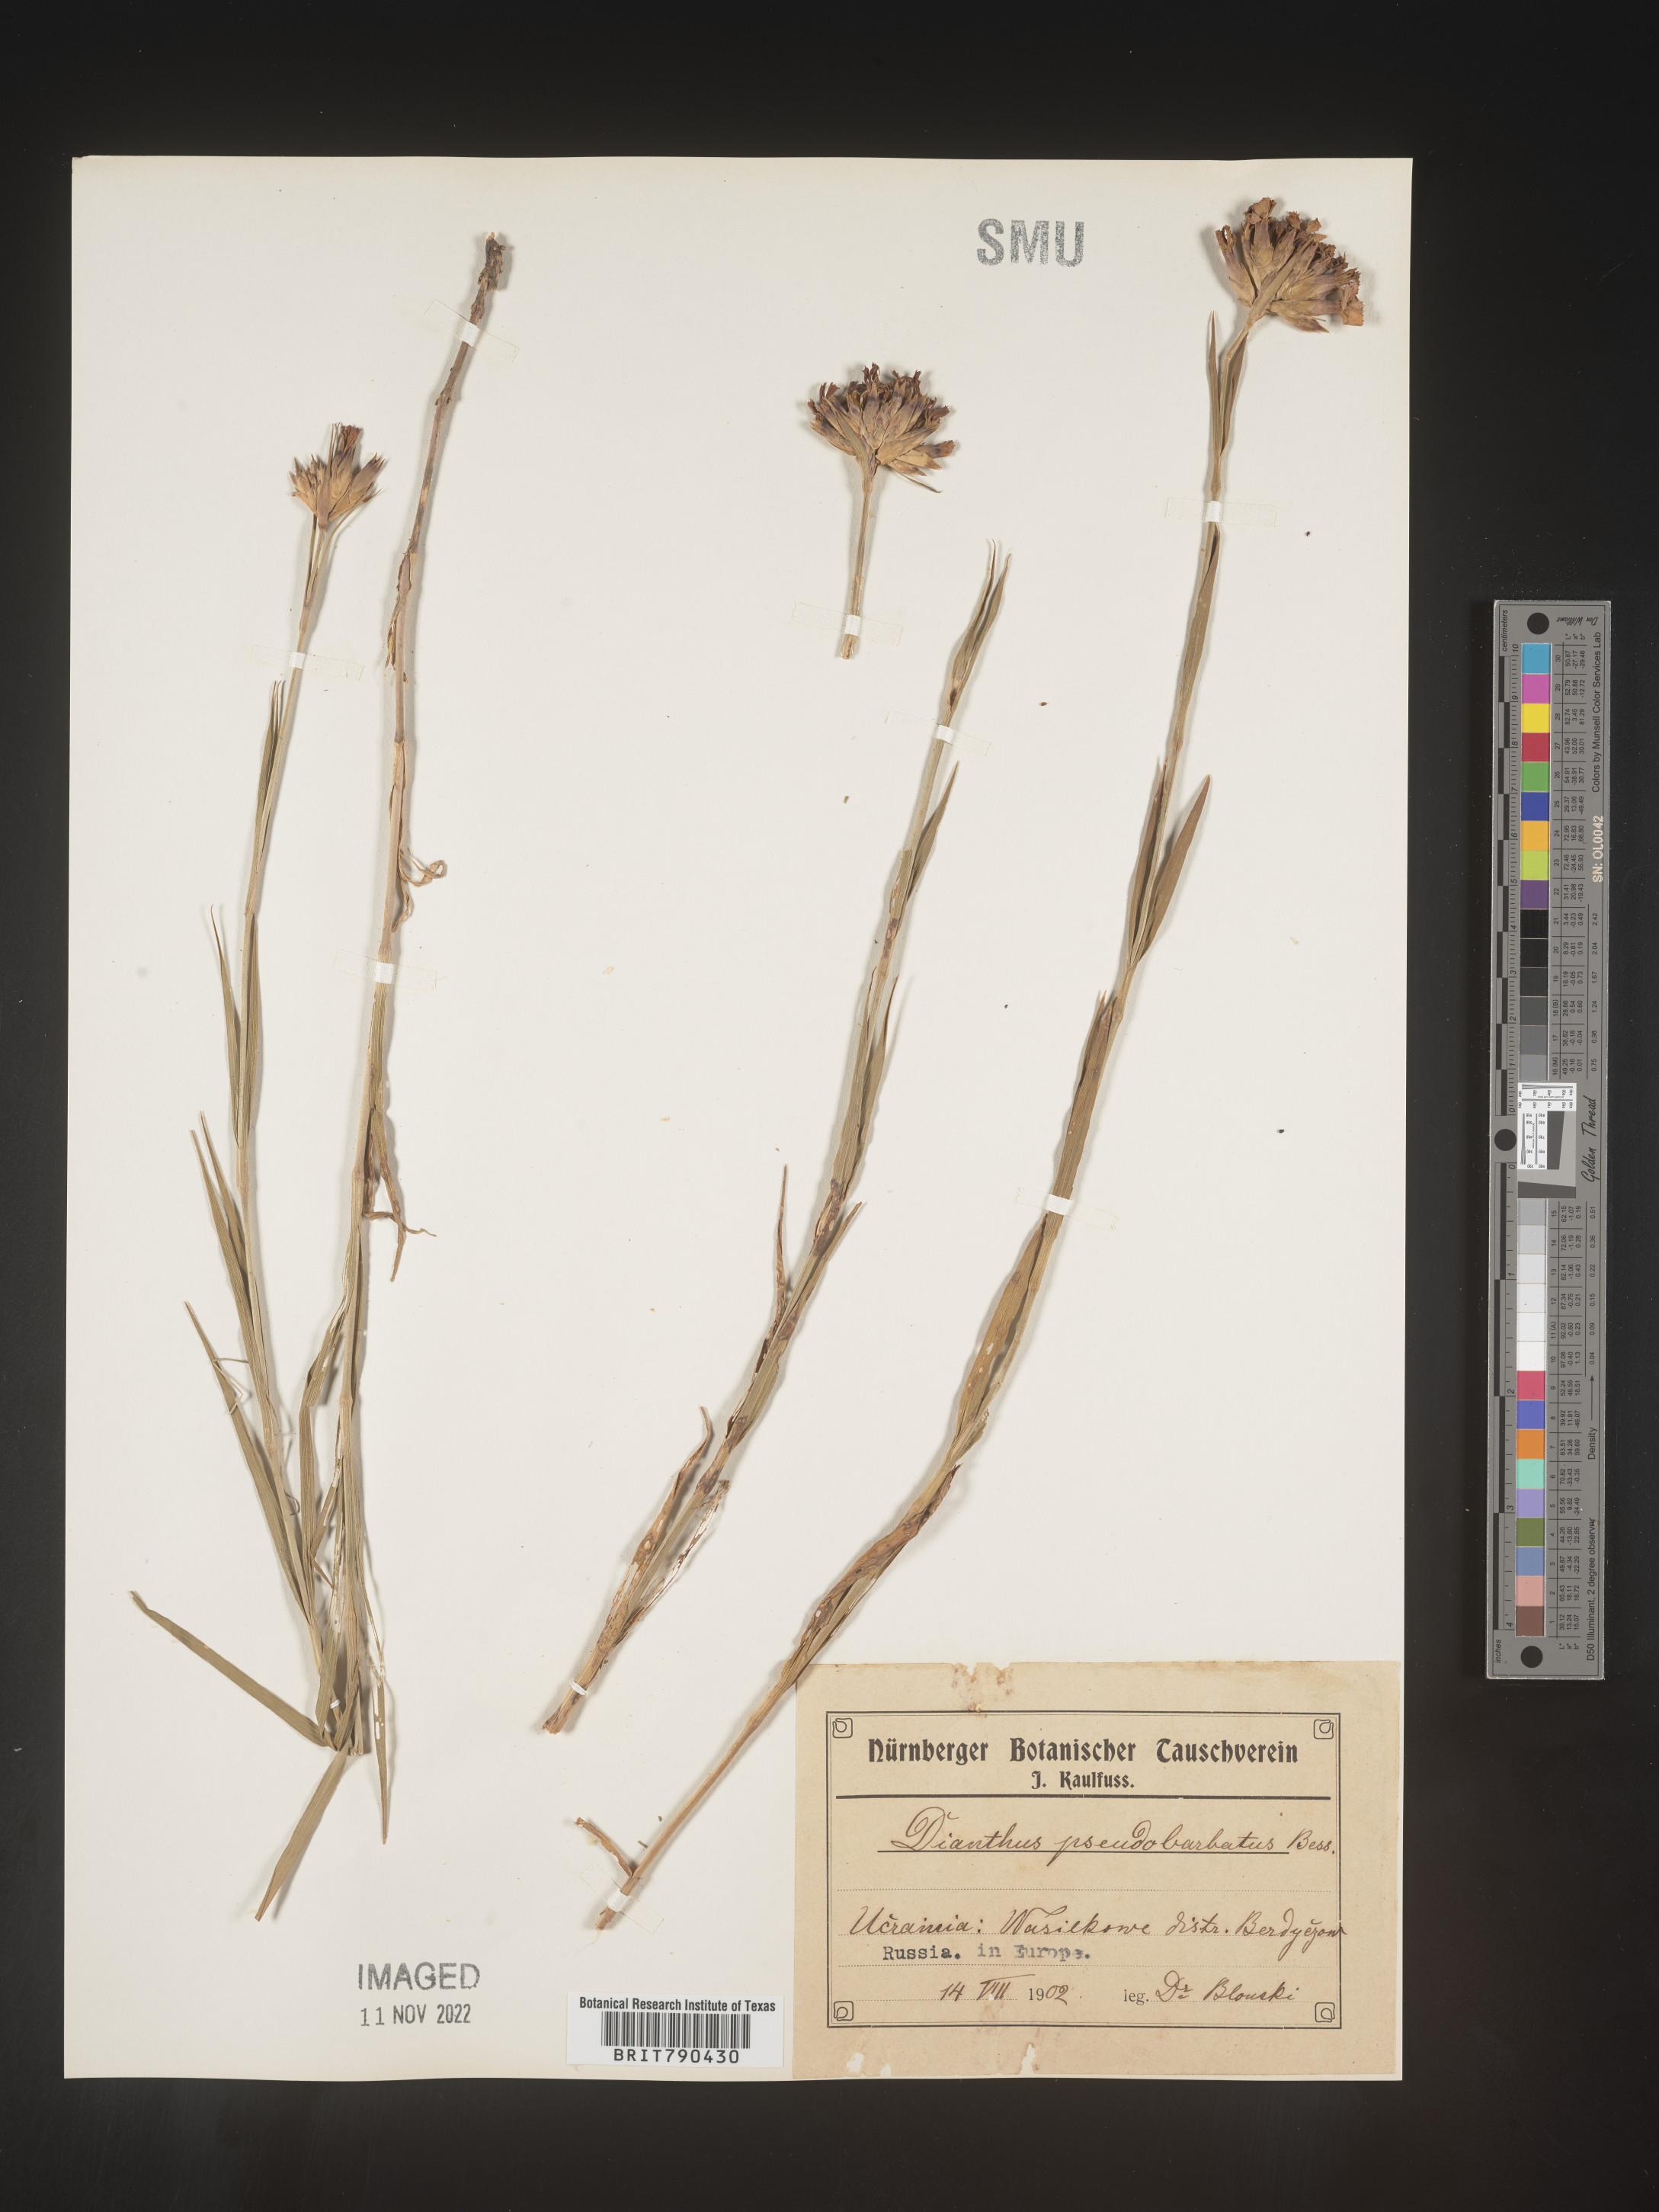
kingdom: Plantae
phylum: Tracheophyta
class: Magnoliopsida
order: Caryophyllales
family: Caryophyllaceae
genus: Dianthus
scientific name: Dianthus
